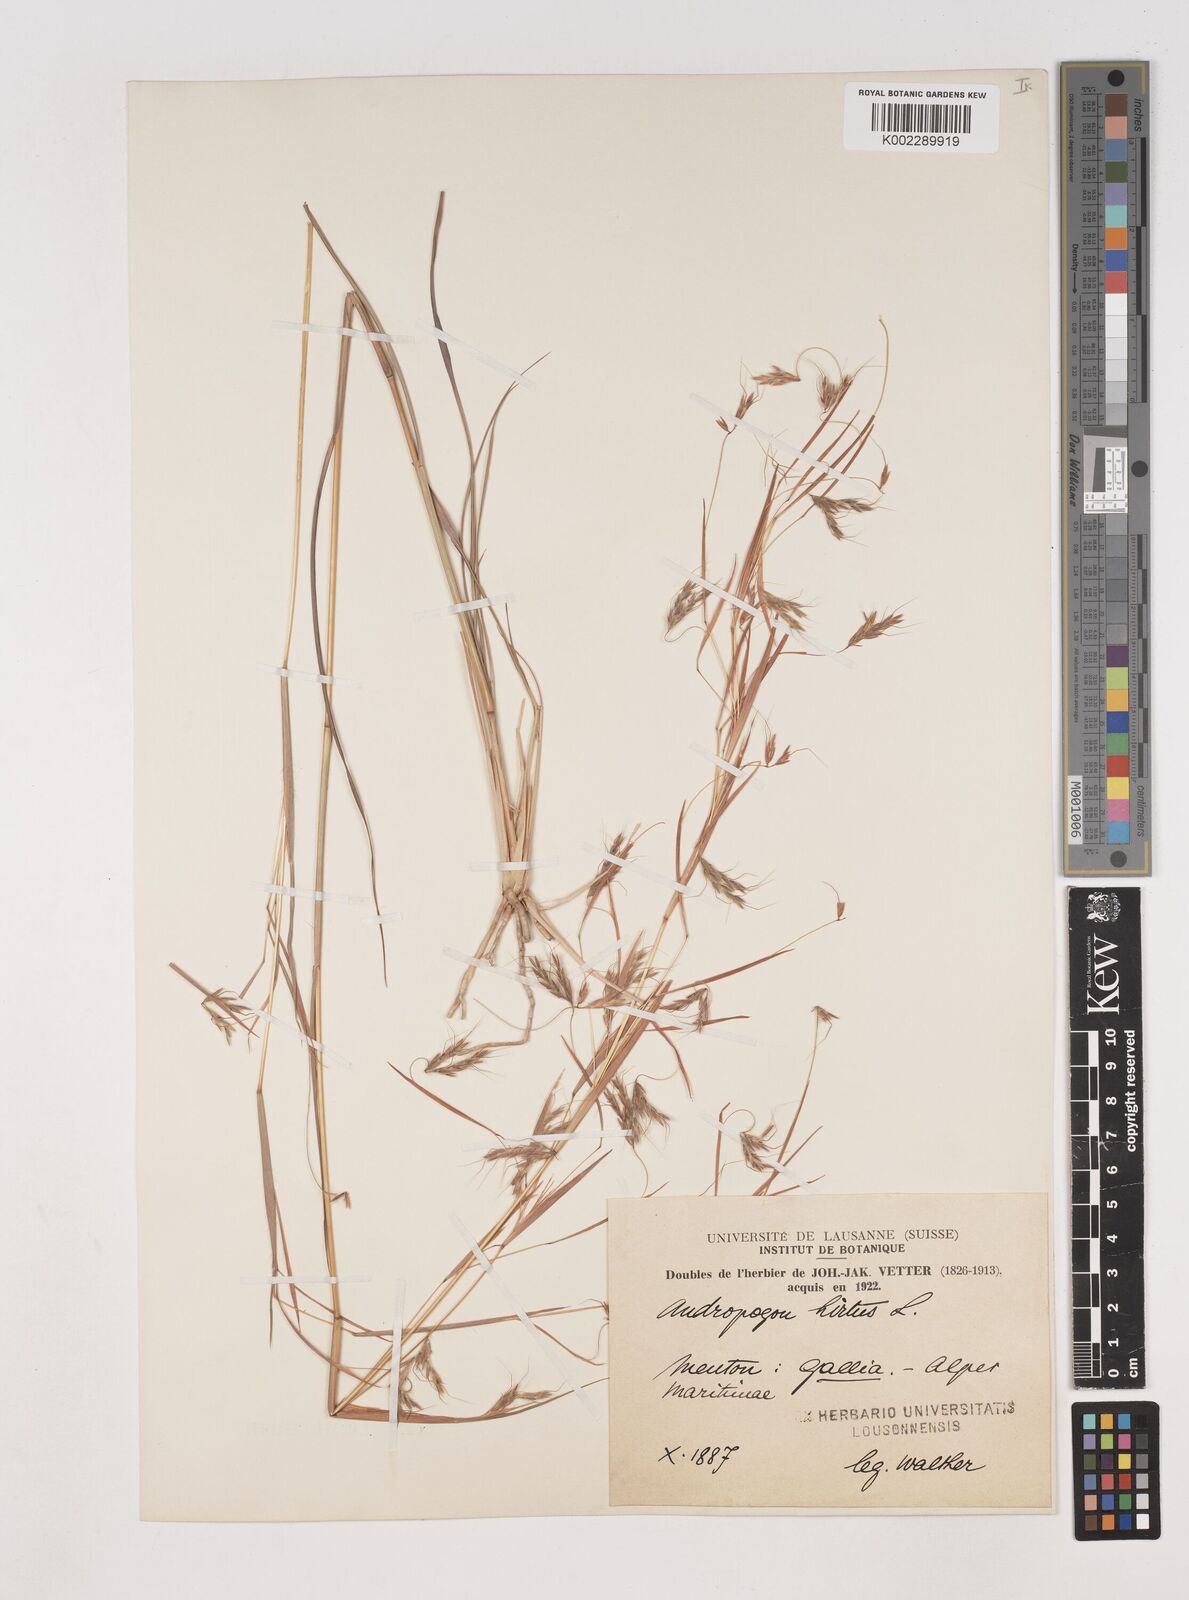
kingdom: Plantae
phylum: Tracheophyta
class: Liliopsida
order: Poales
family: Poaceae
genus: Hyparrhenia
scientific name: Hyparrhenia hirta
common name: Thatching grass
